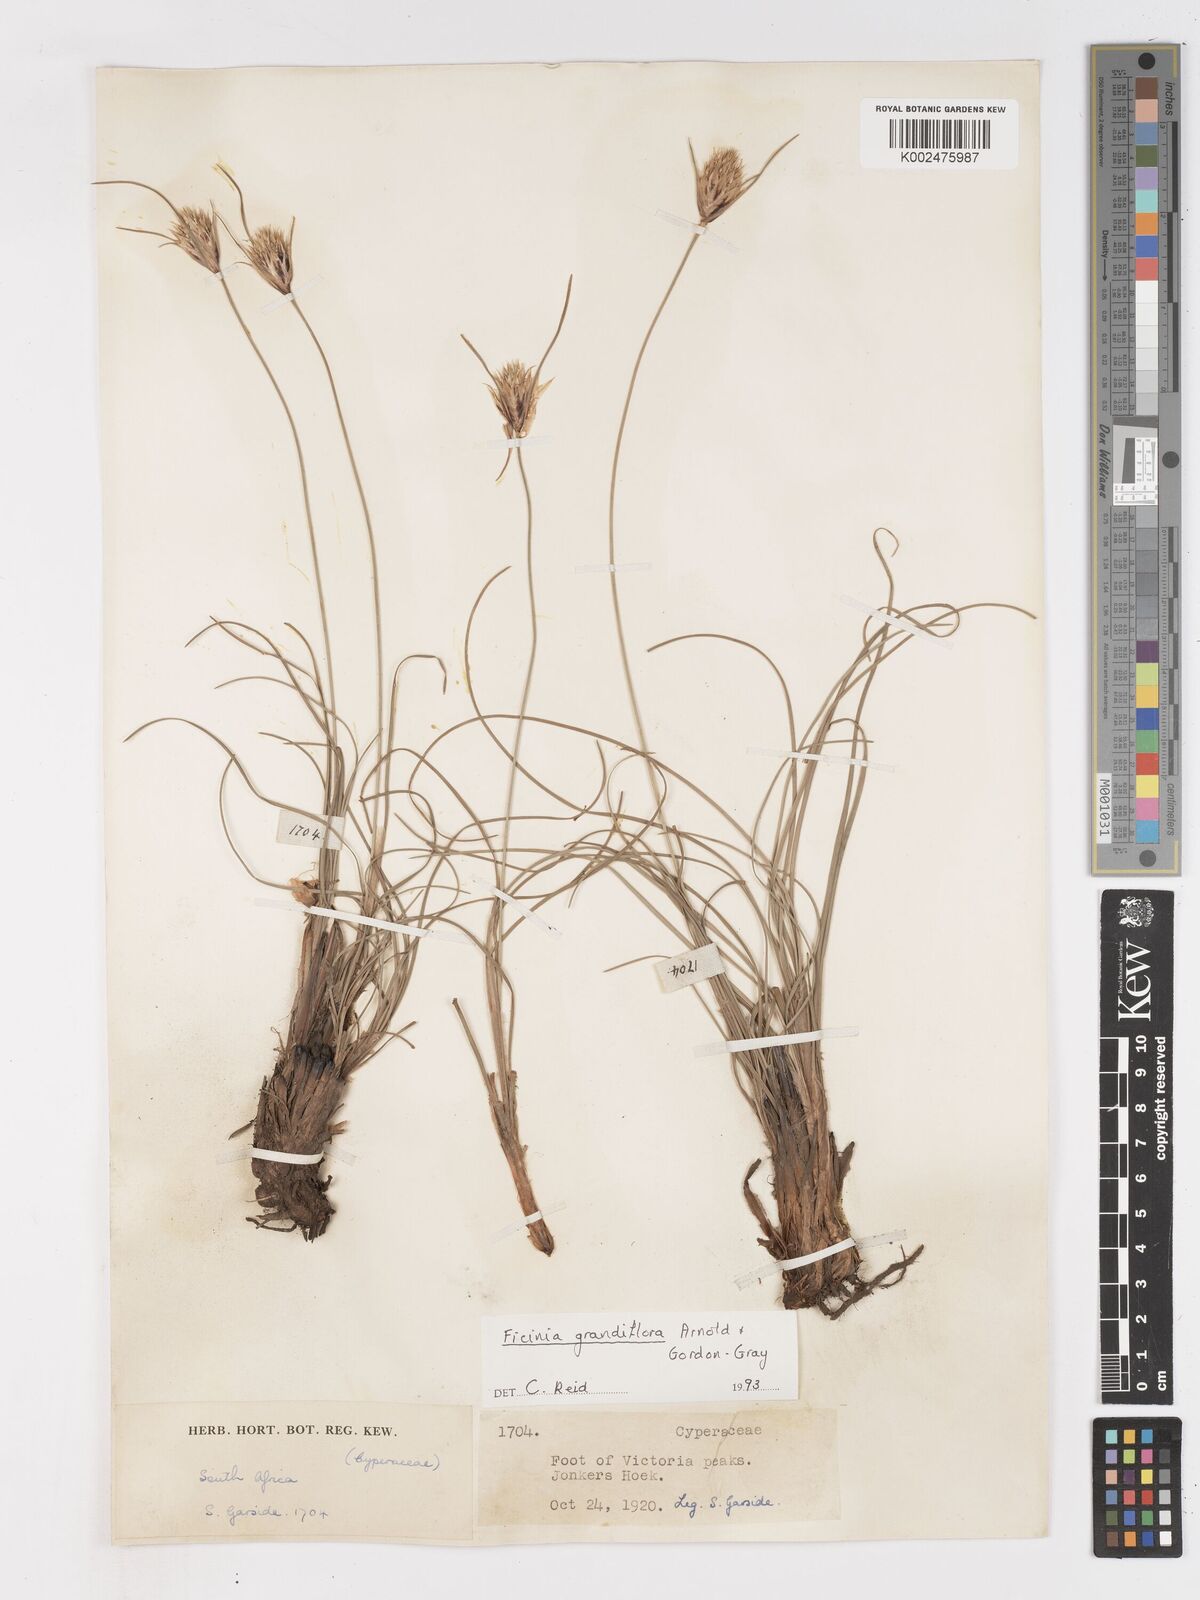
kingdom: Plantae
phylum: Tracheophyta
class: Liliopsida
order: Poales
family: Cyperaceae
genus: Ficinia
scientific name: Ficinia grandiflora
